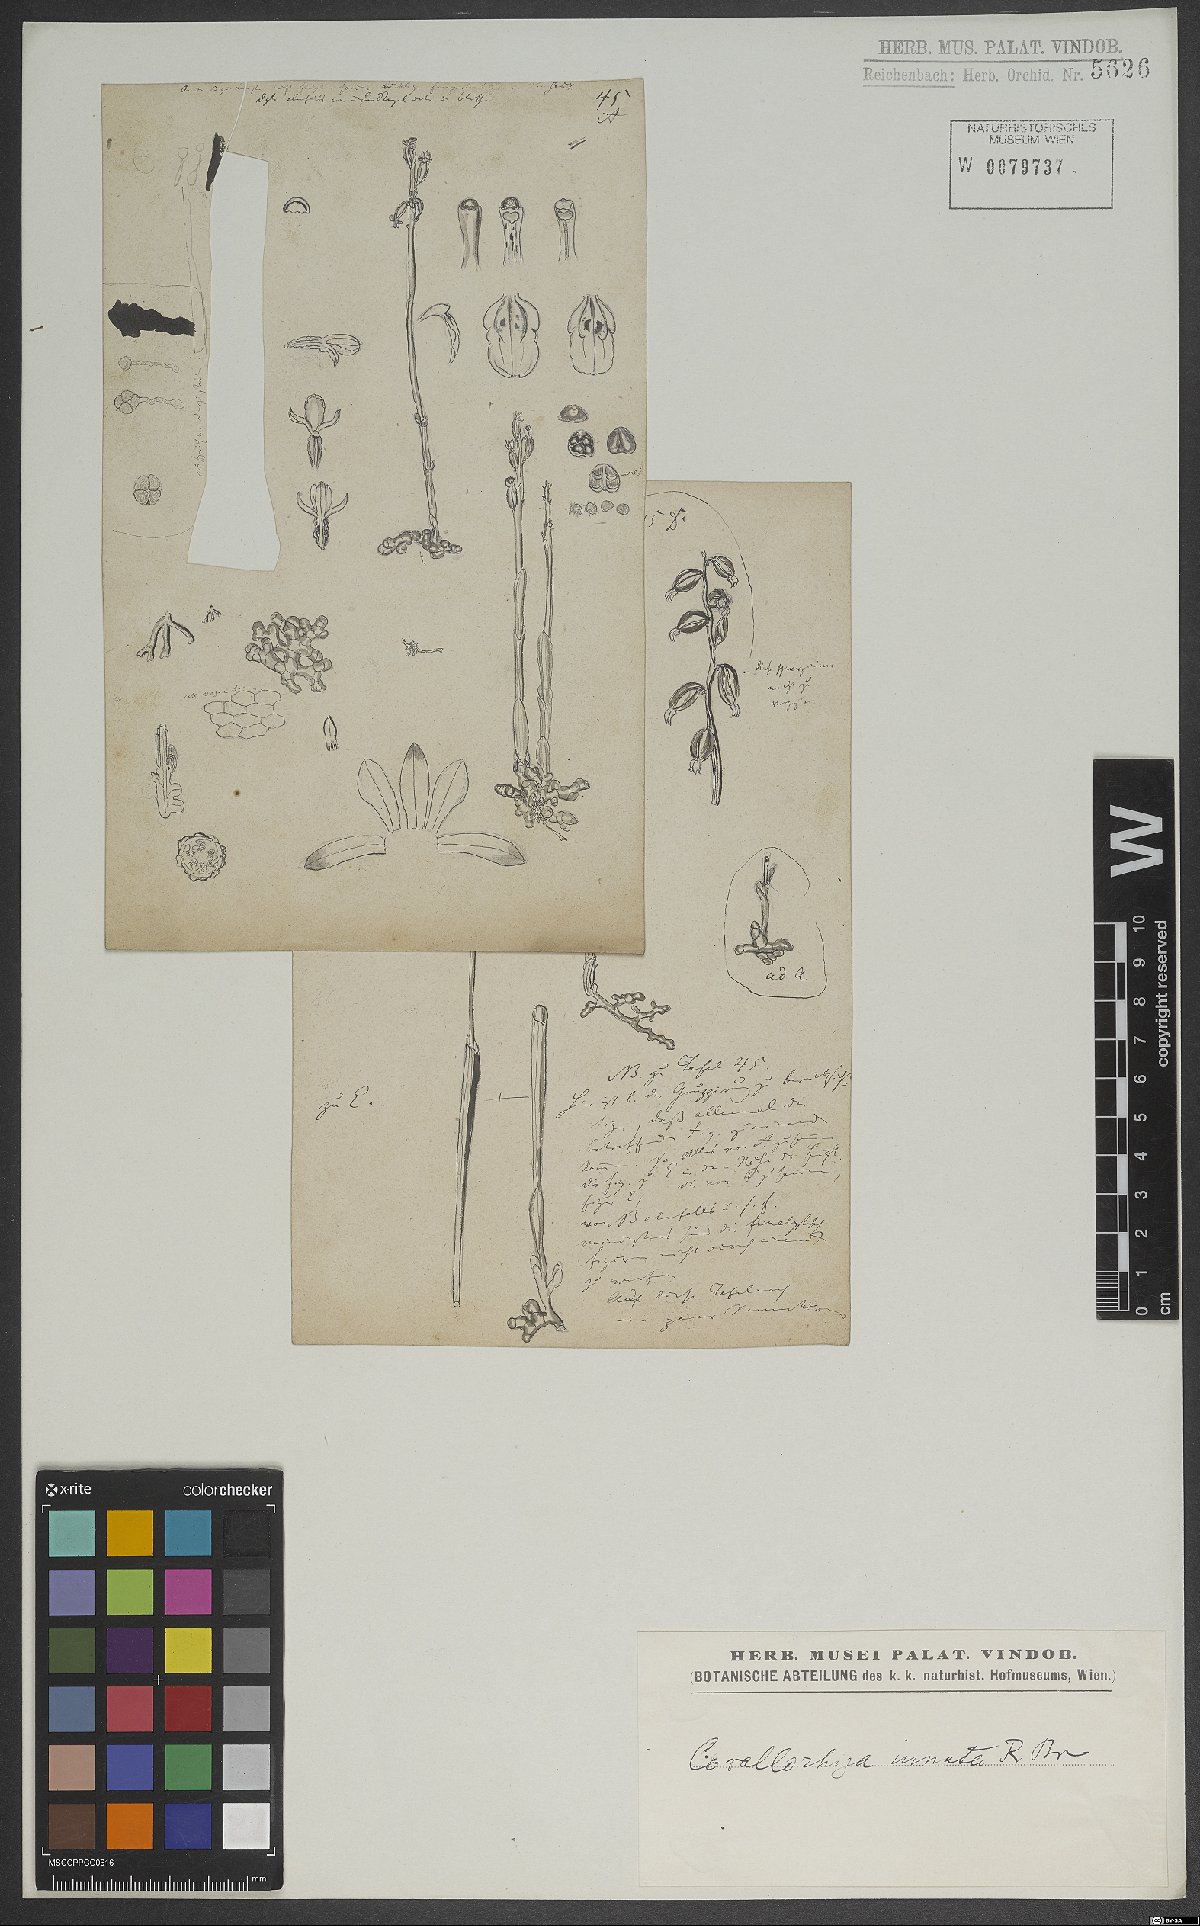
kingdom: Plantae
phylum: Tracheophyta
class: Liliopsida
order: Asparagales
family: Orchidaceae
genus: Corallorhiza
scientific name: Corallorhiza trifida
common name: Yellow coralroot
